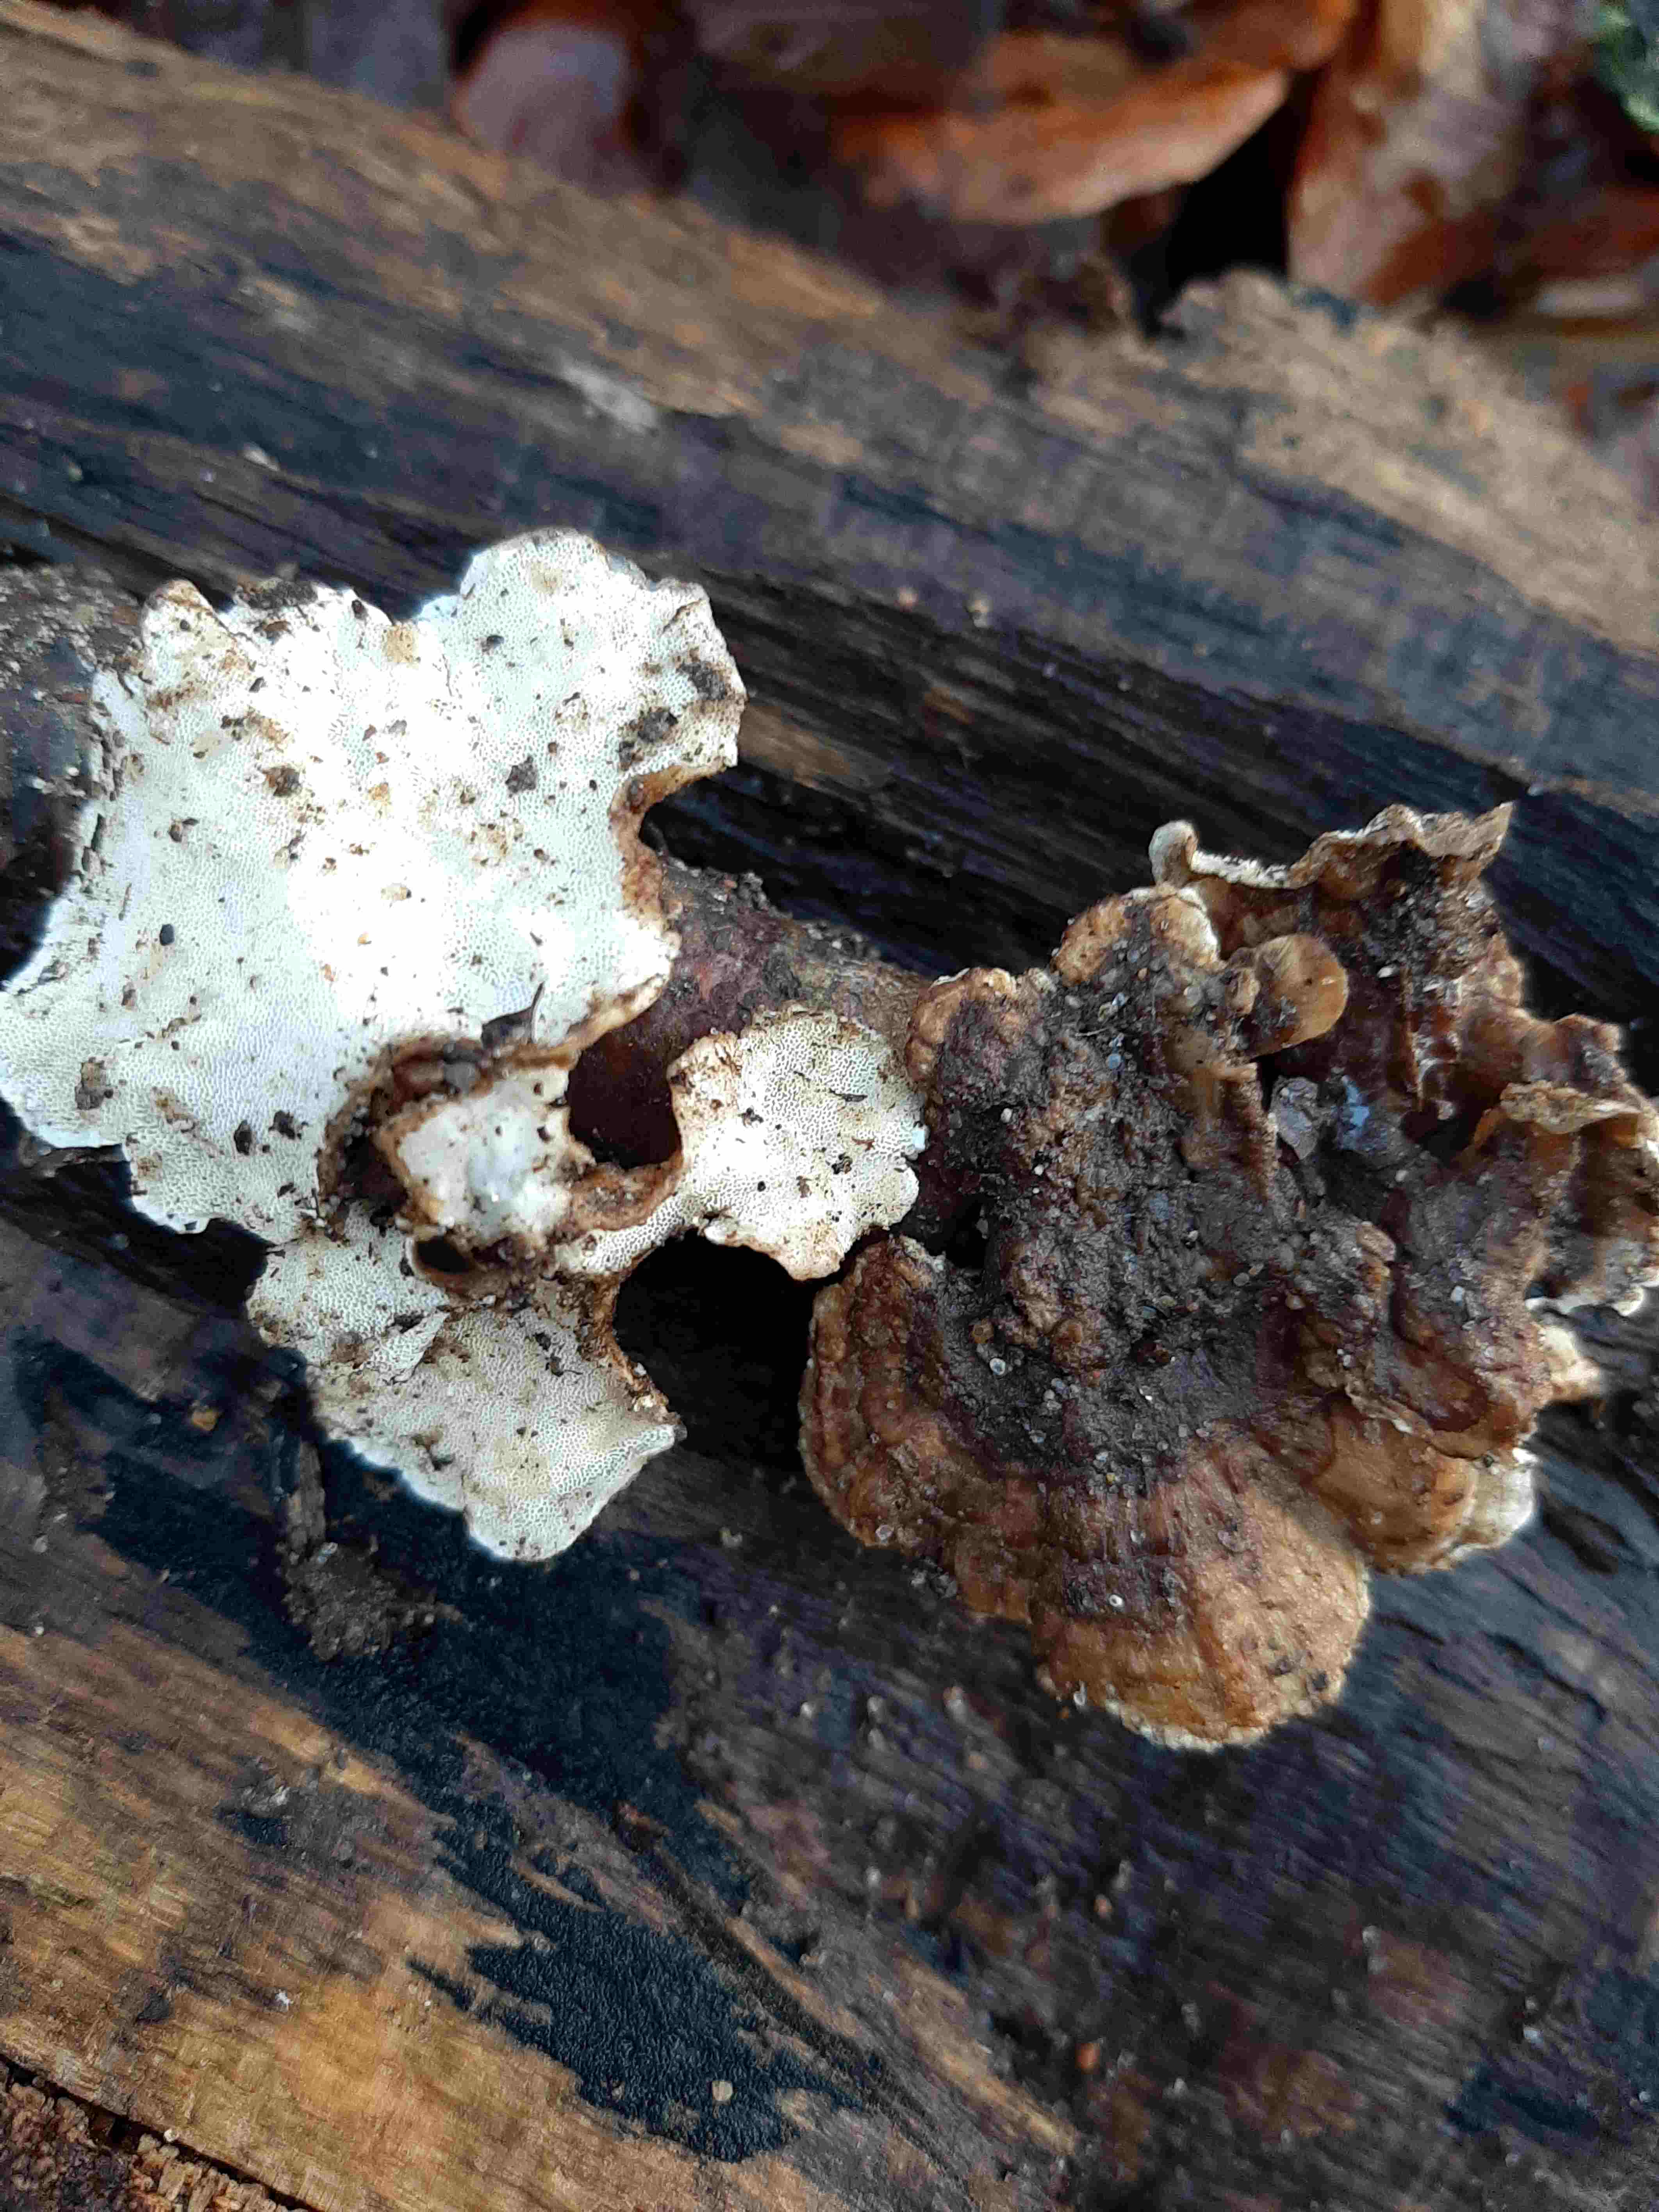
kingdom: Fungi
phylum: Basidiomycota
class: Agaricomycetes
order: Polyporales
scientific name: Polyporales
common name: poresvampordenen
